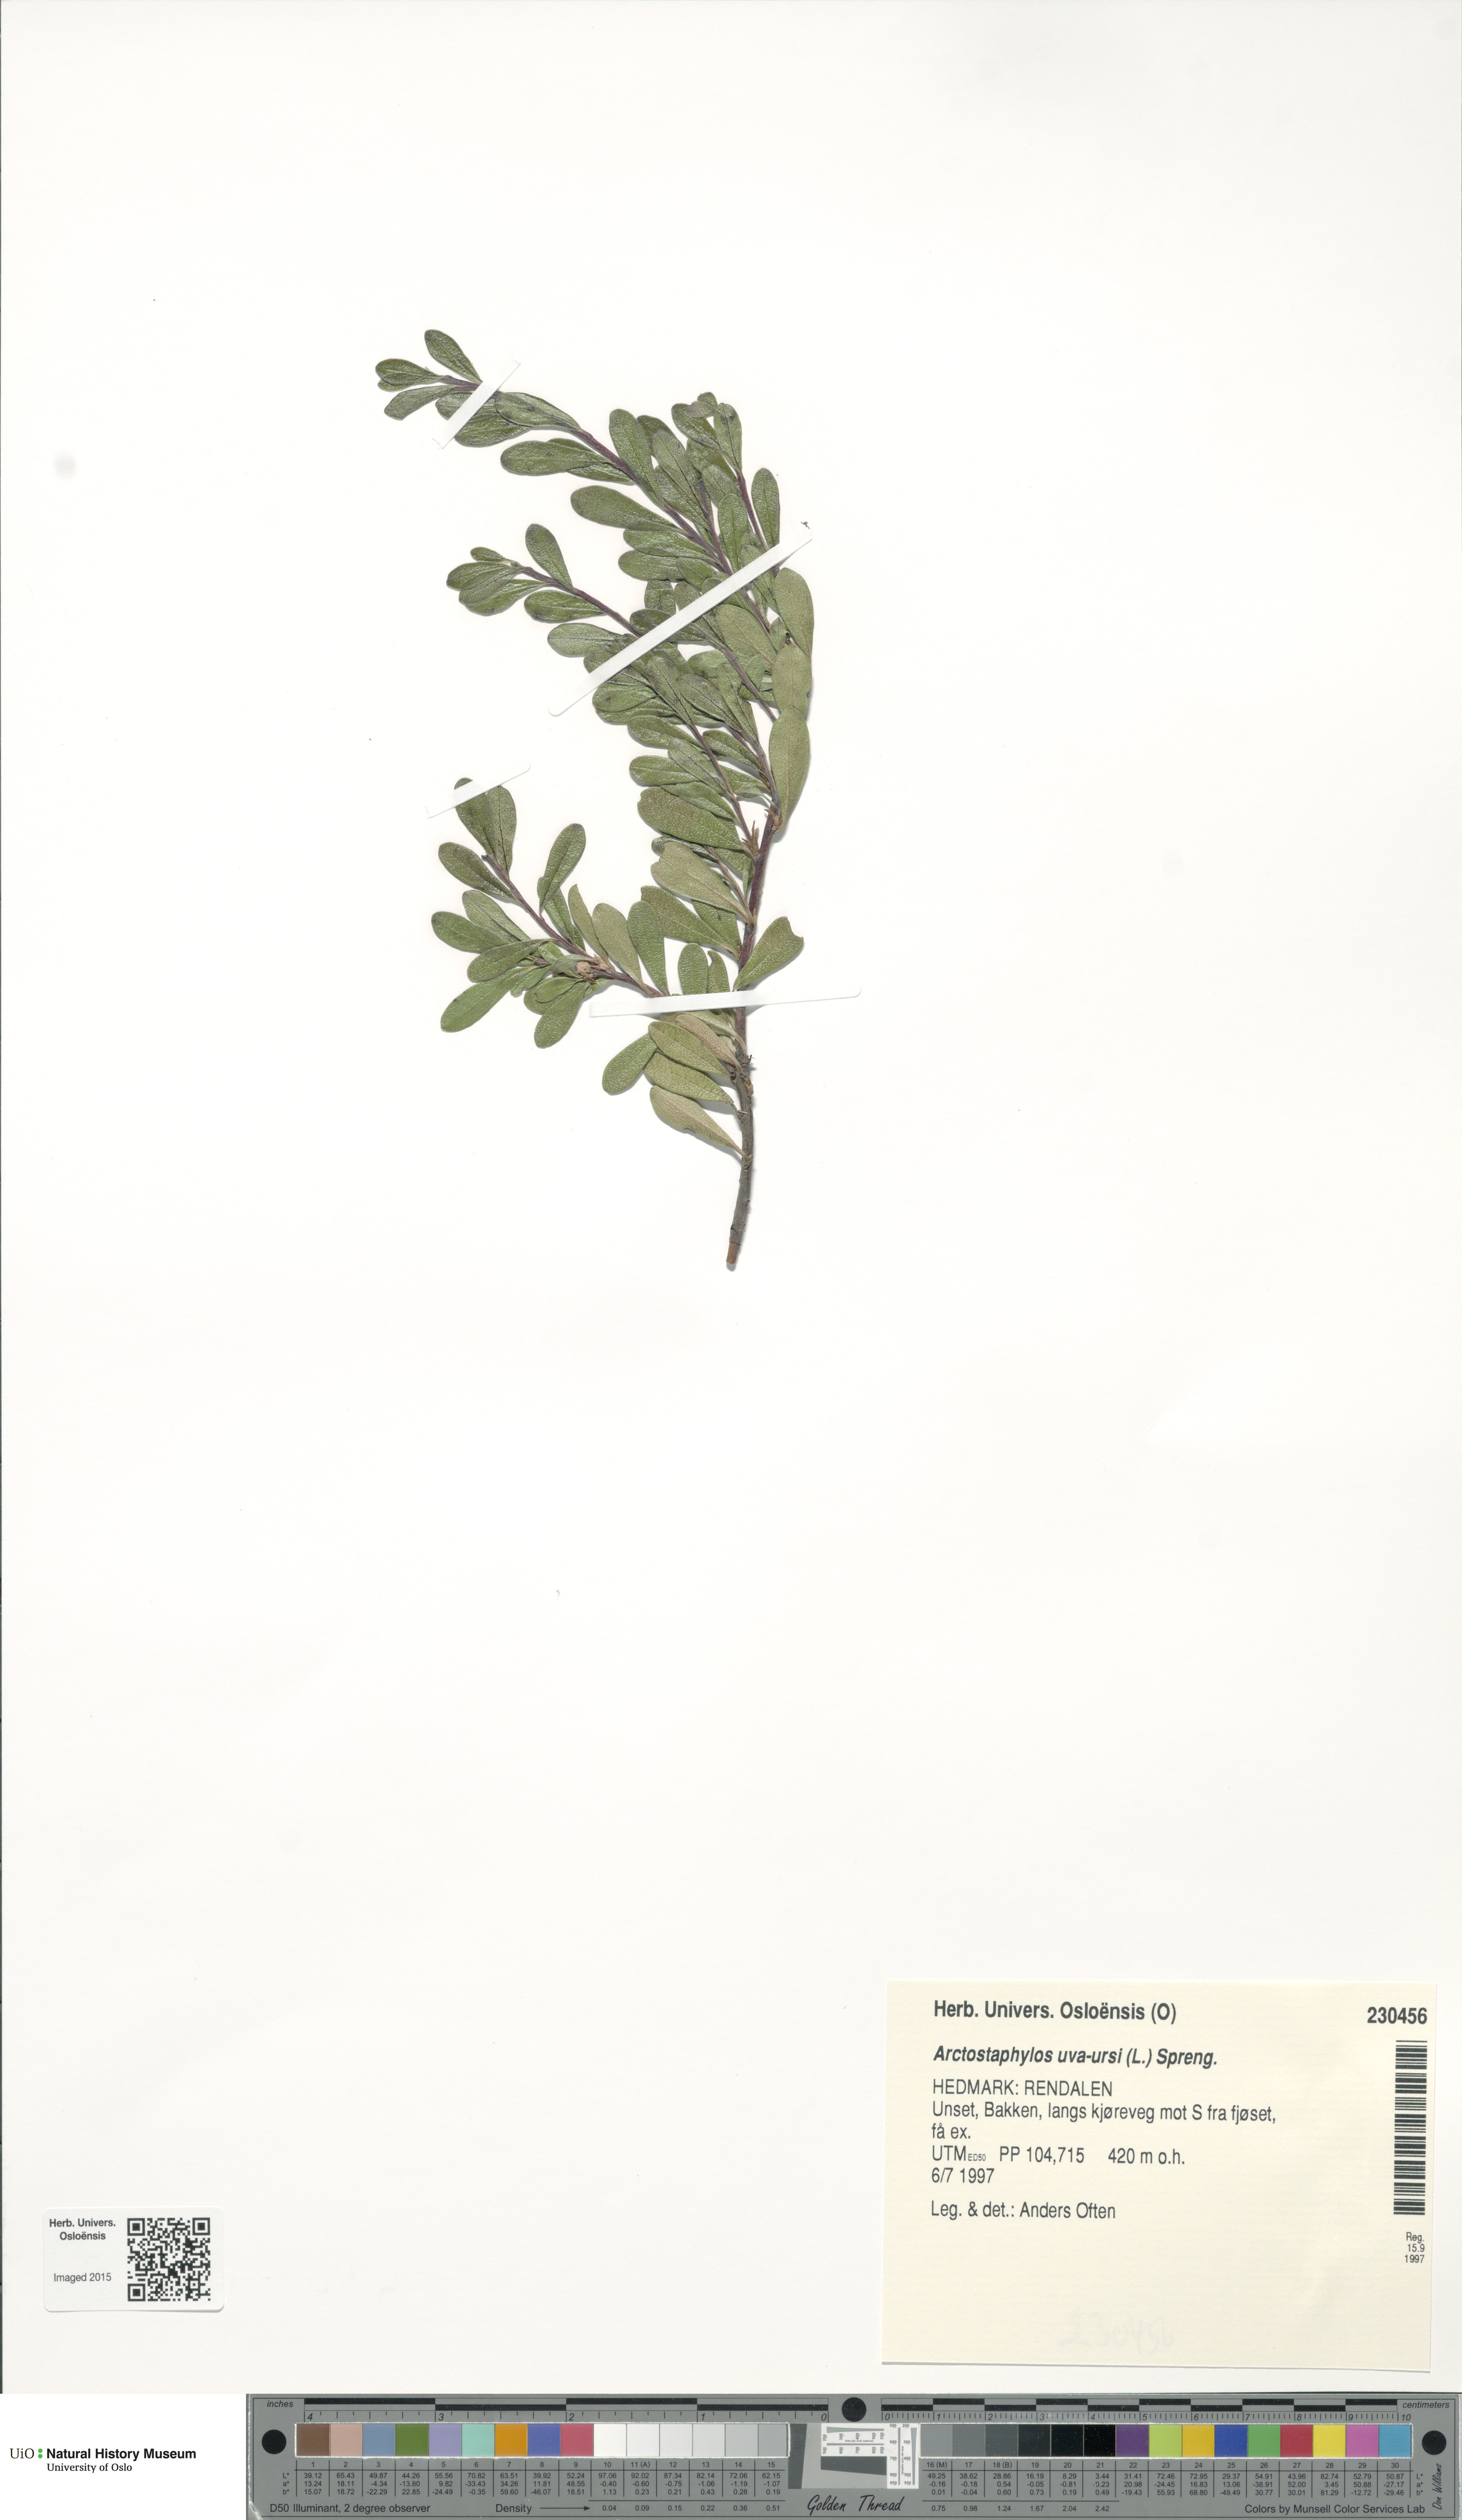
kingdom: Plantae
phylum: Tracheophyta
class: Magnoliopsida
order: Ericales
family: Ericaceae
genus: Arctostaphylos
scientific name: Arctostaphylos uva-ursi
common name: Bearberry
